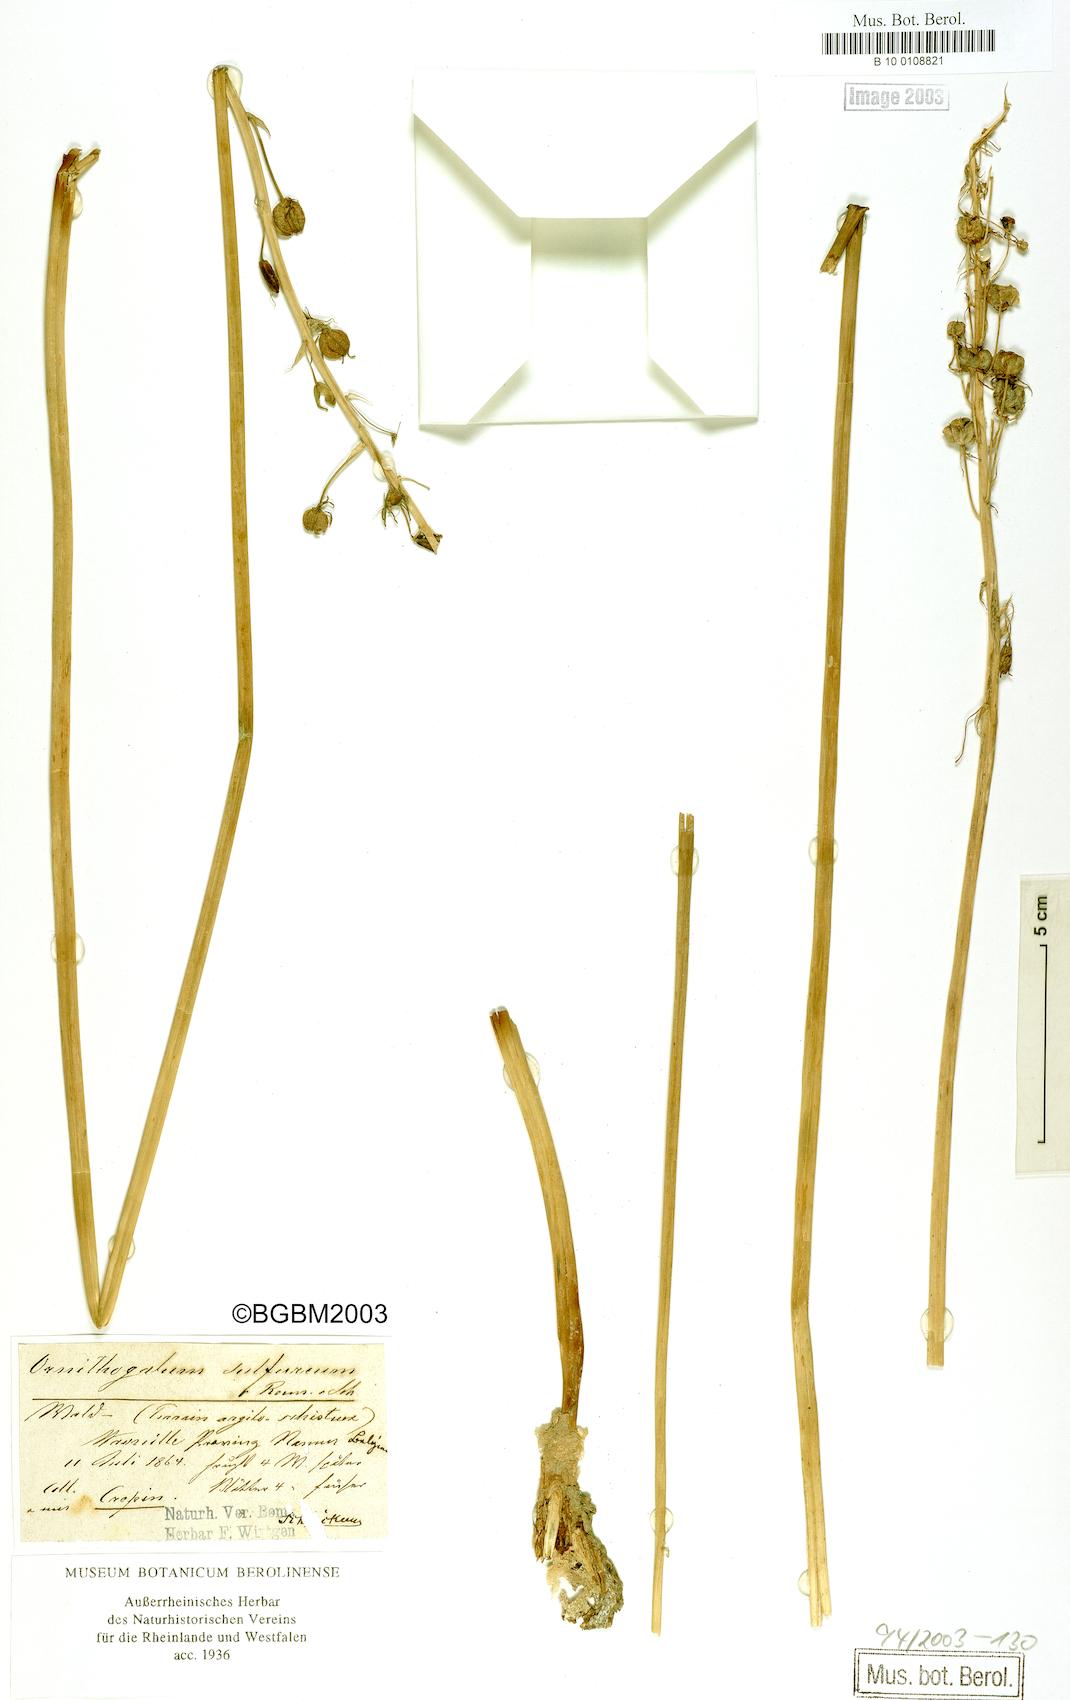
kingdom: Plantae
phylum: Tracheophyta
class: Liliopsida
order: Asparagales
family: Asparagaceae
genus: Ornithogalum
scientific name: Ornithogalum sulfureum
